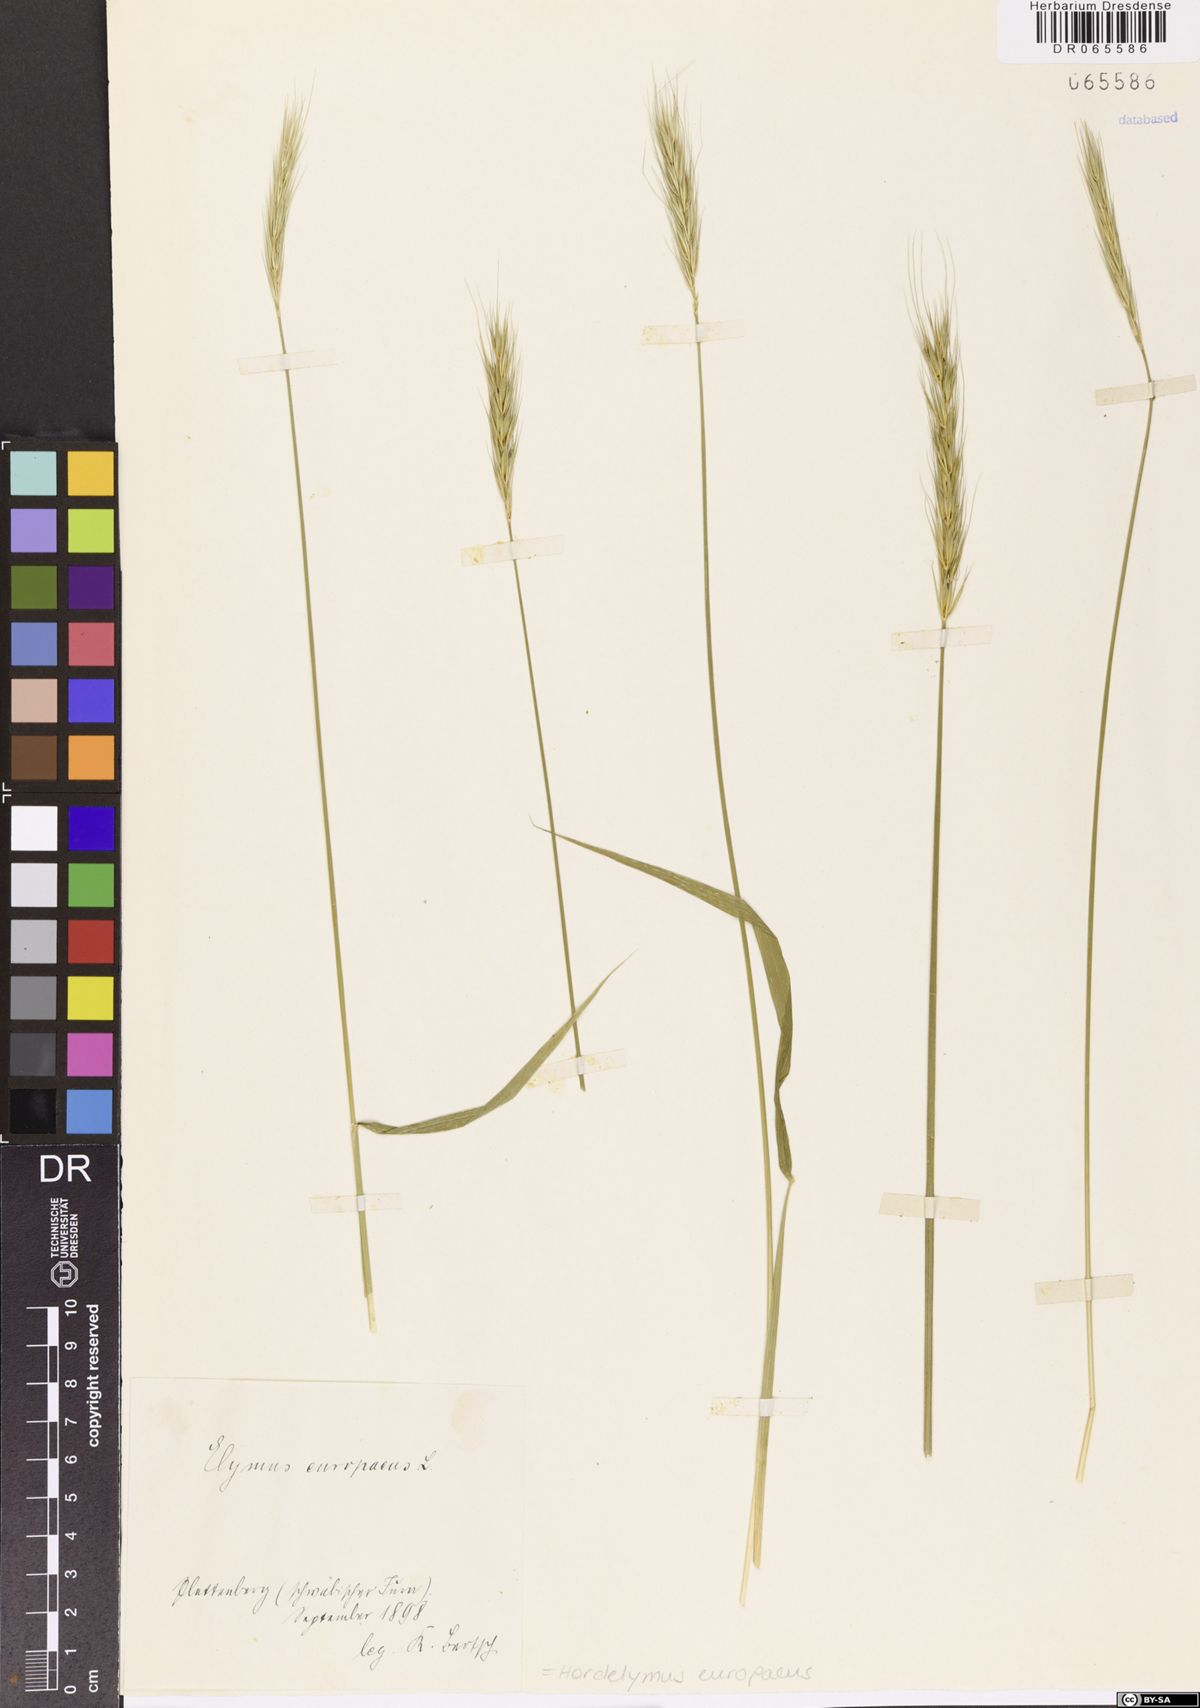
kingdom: Plantae
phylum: Tracheophyta
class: Liliopsida
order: Poales
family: Poaceae
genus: Hordelymus
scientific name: Hordelymus europaeus
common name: Wood-barley
